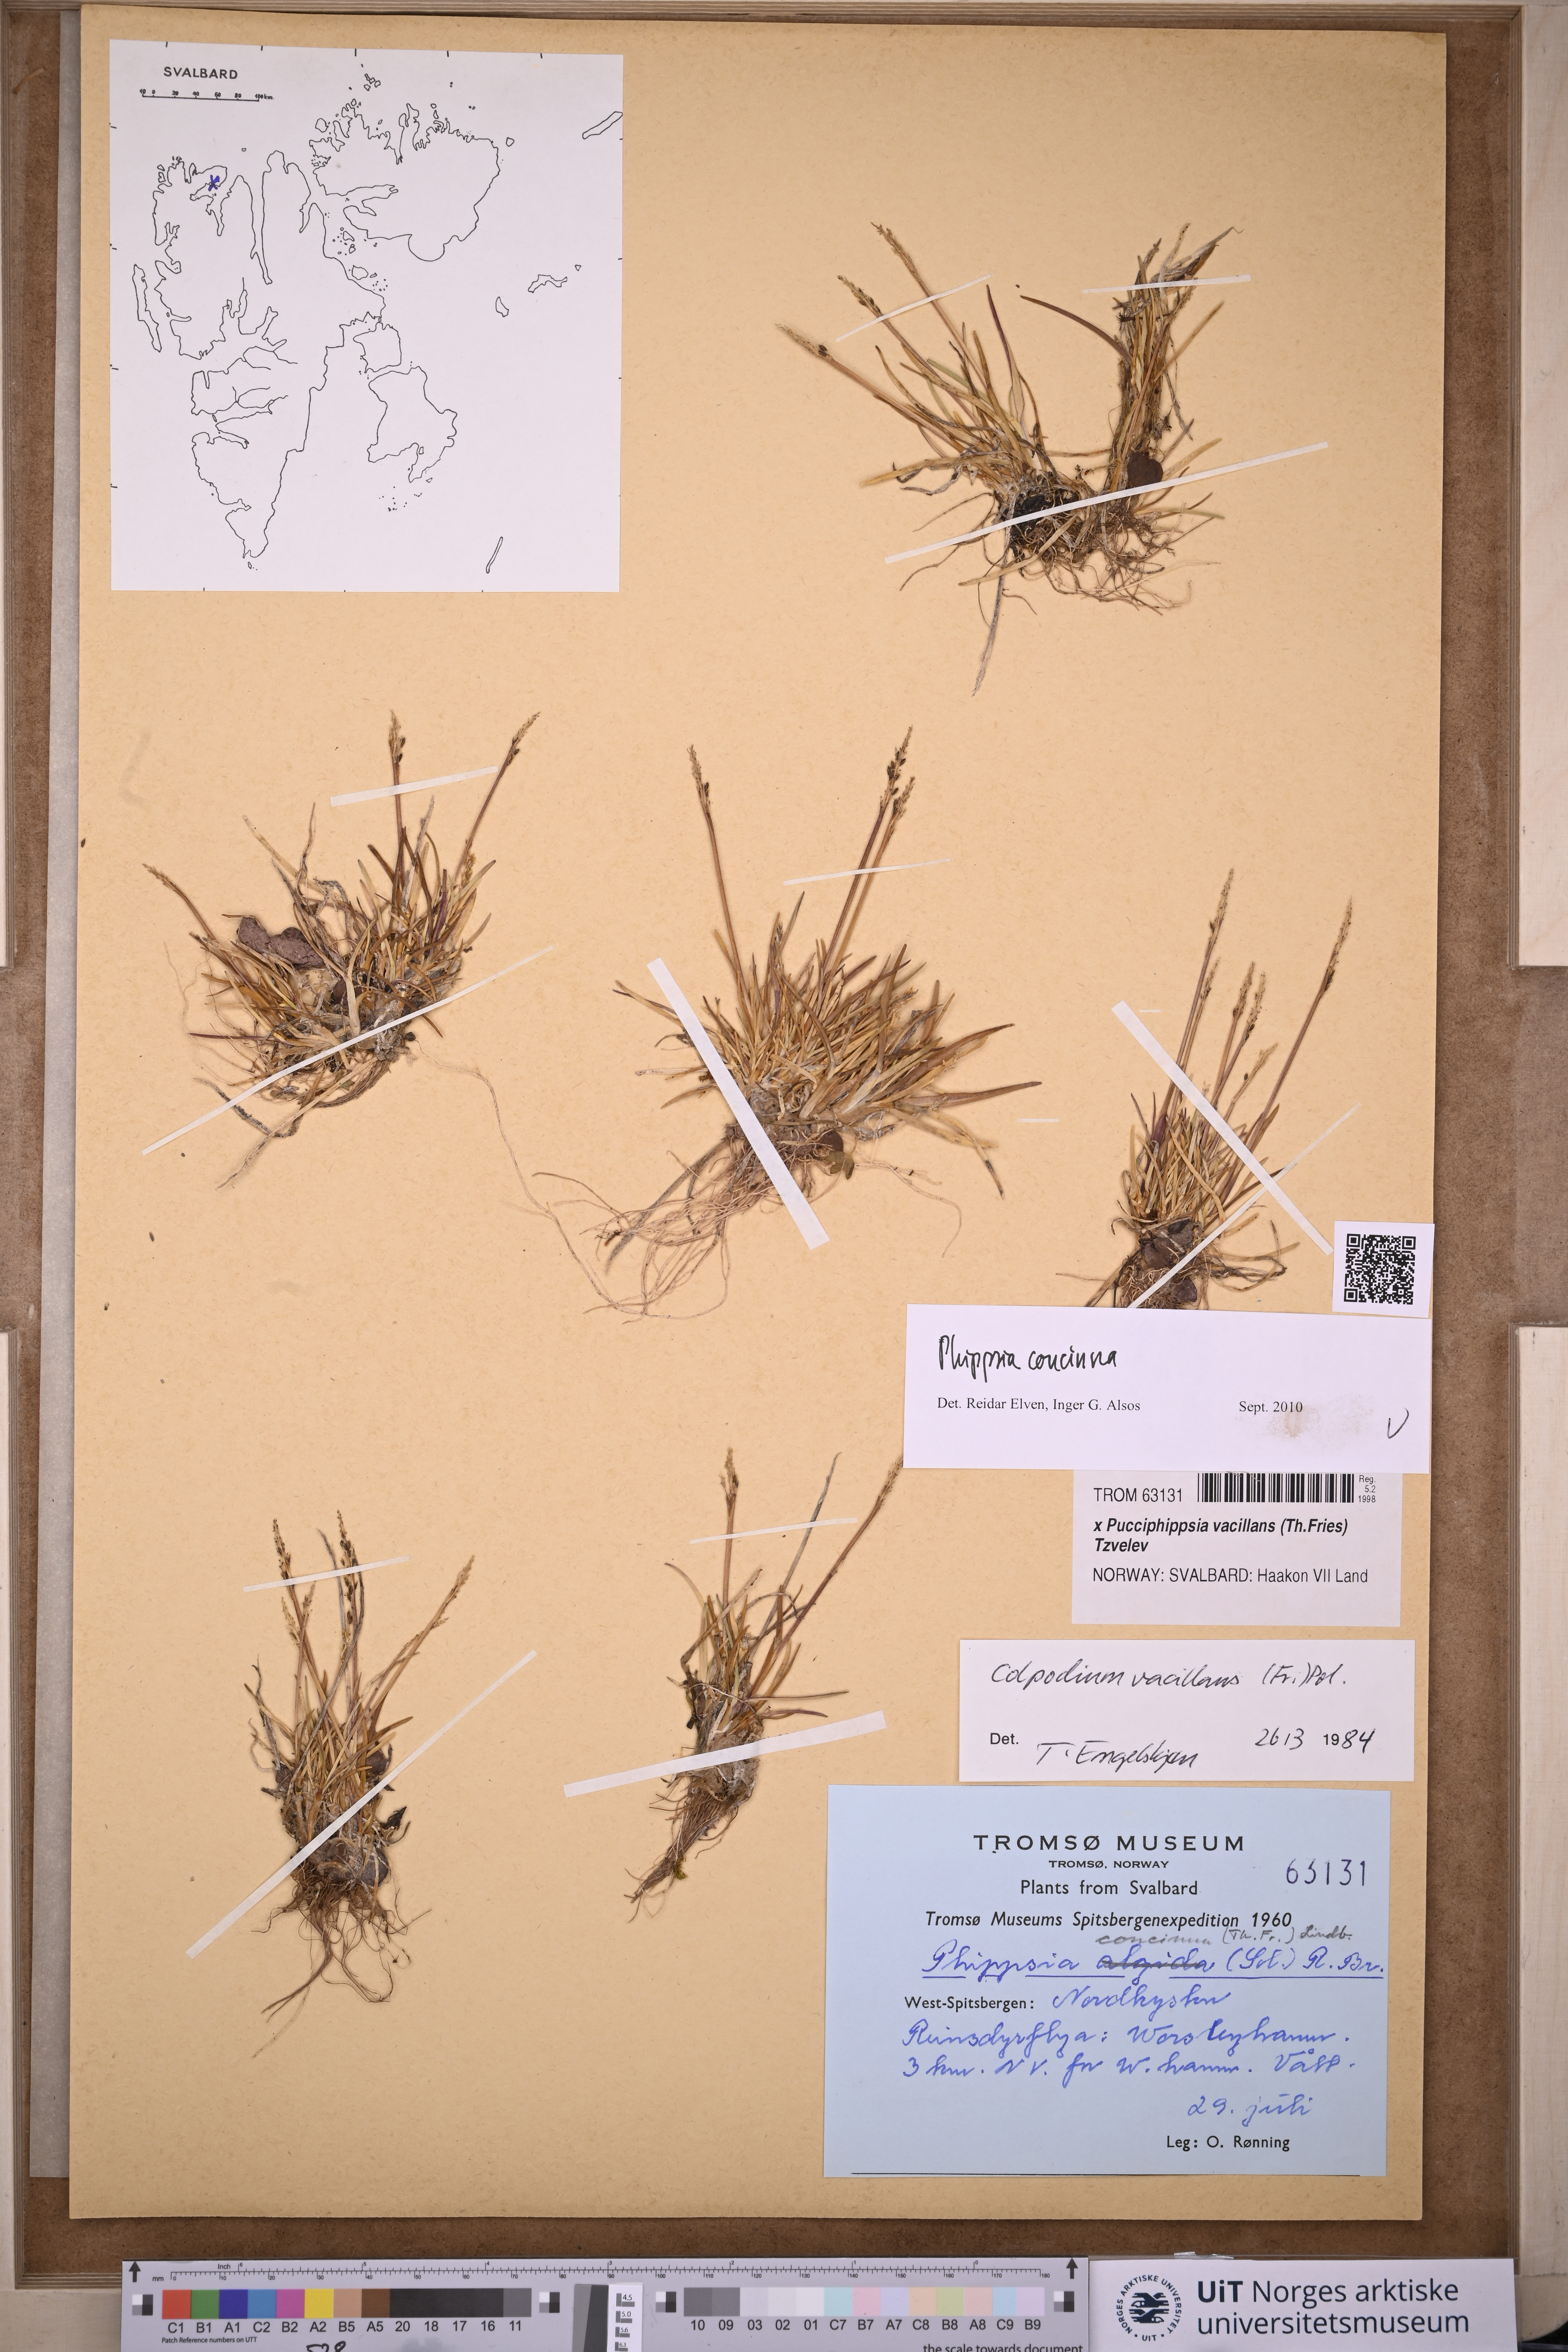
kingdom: Plantae
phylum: Tracheophyta
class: Liliopsida
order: Poales
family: Poaceae
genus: Phippsia
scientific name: Phippsia concinna
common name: Snowgrass
